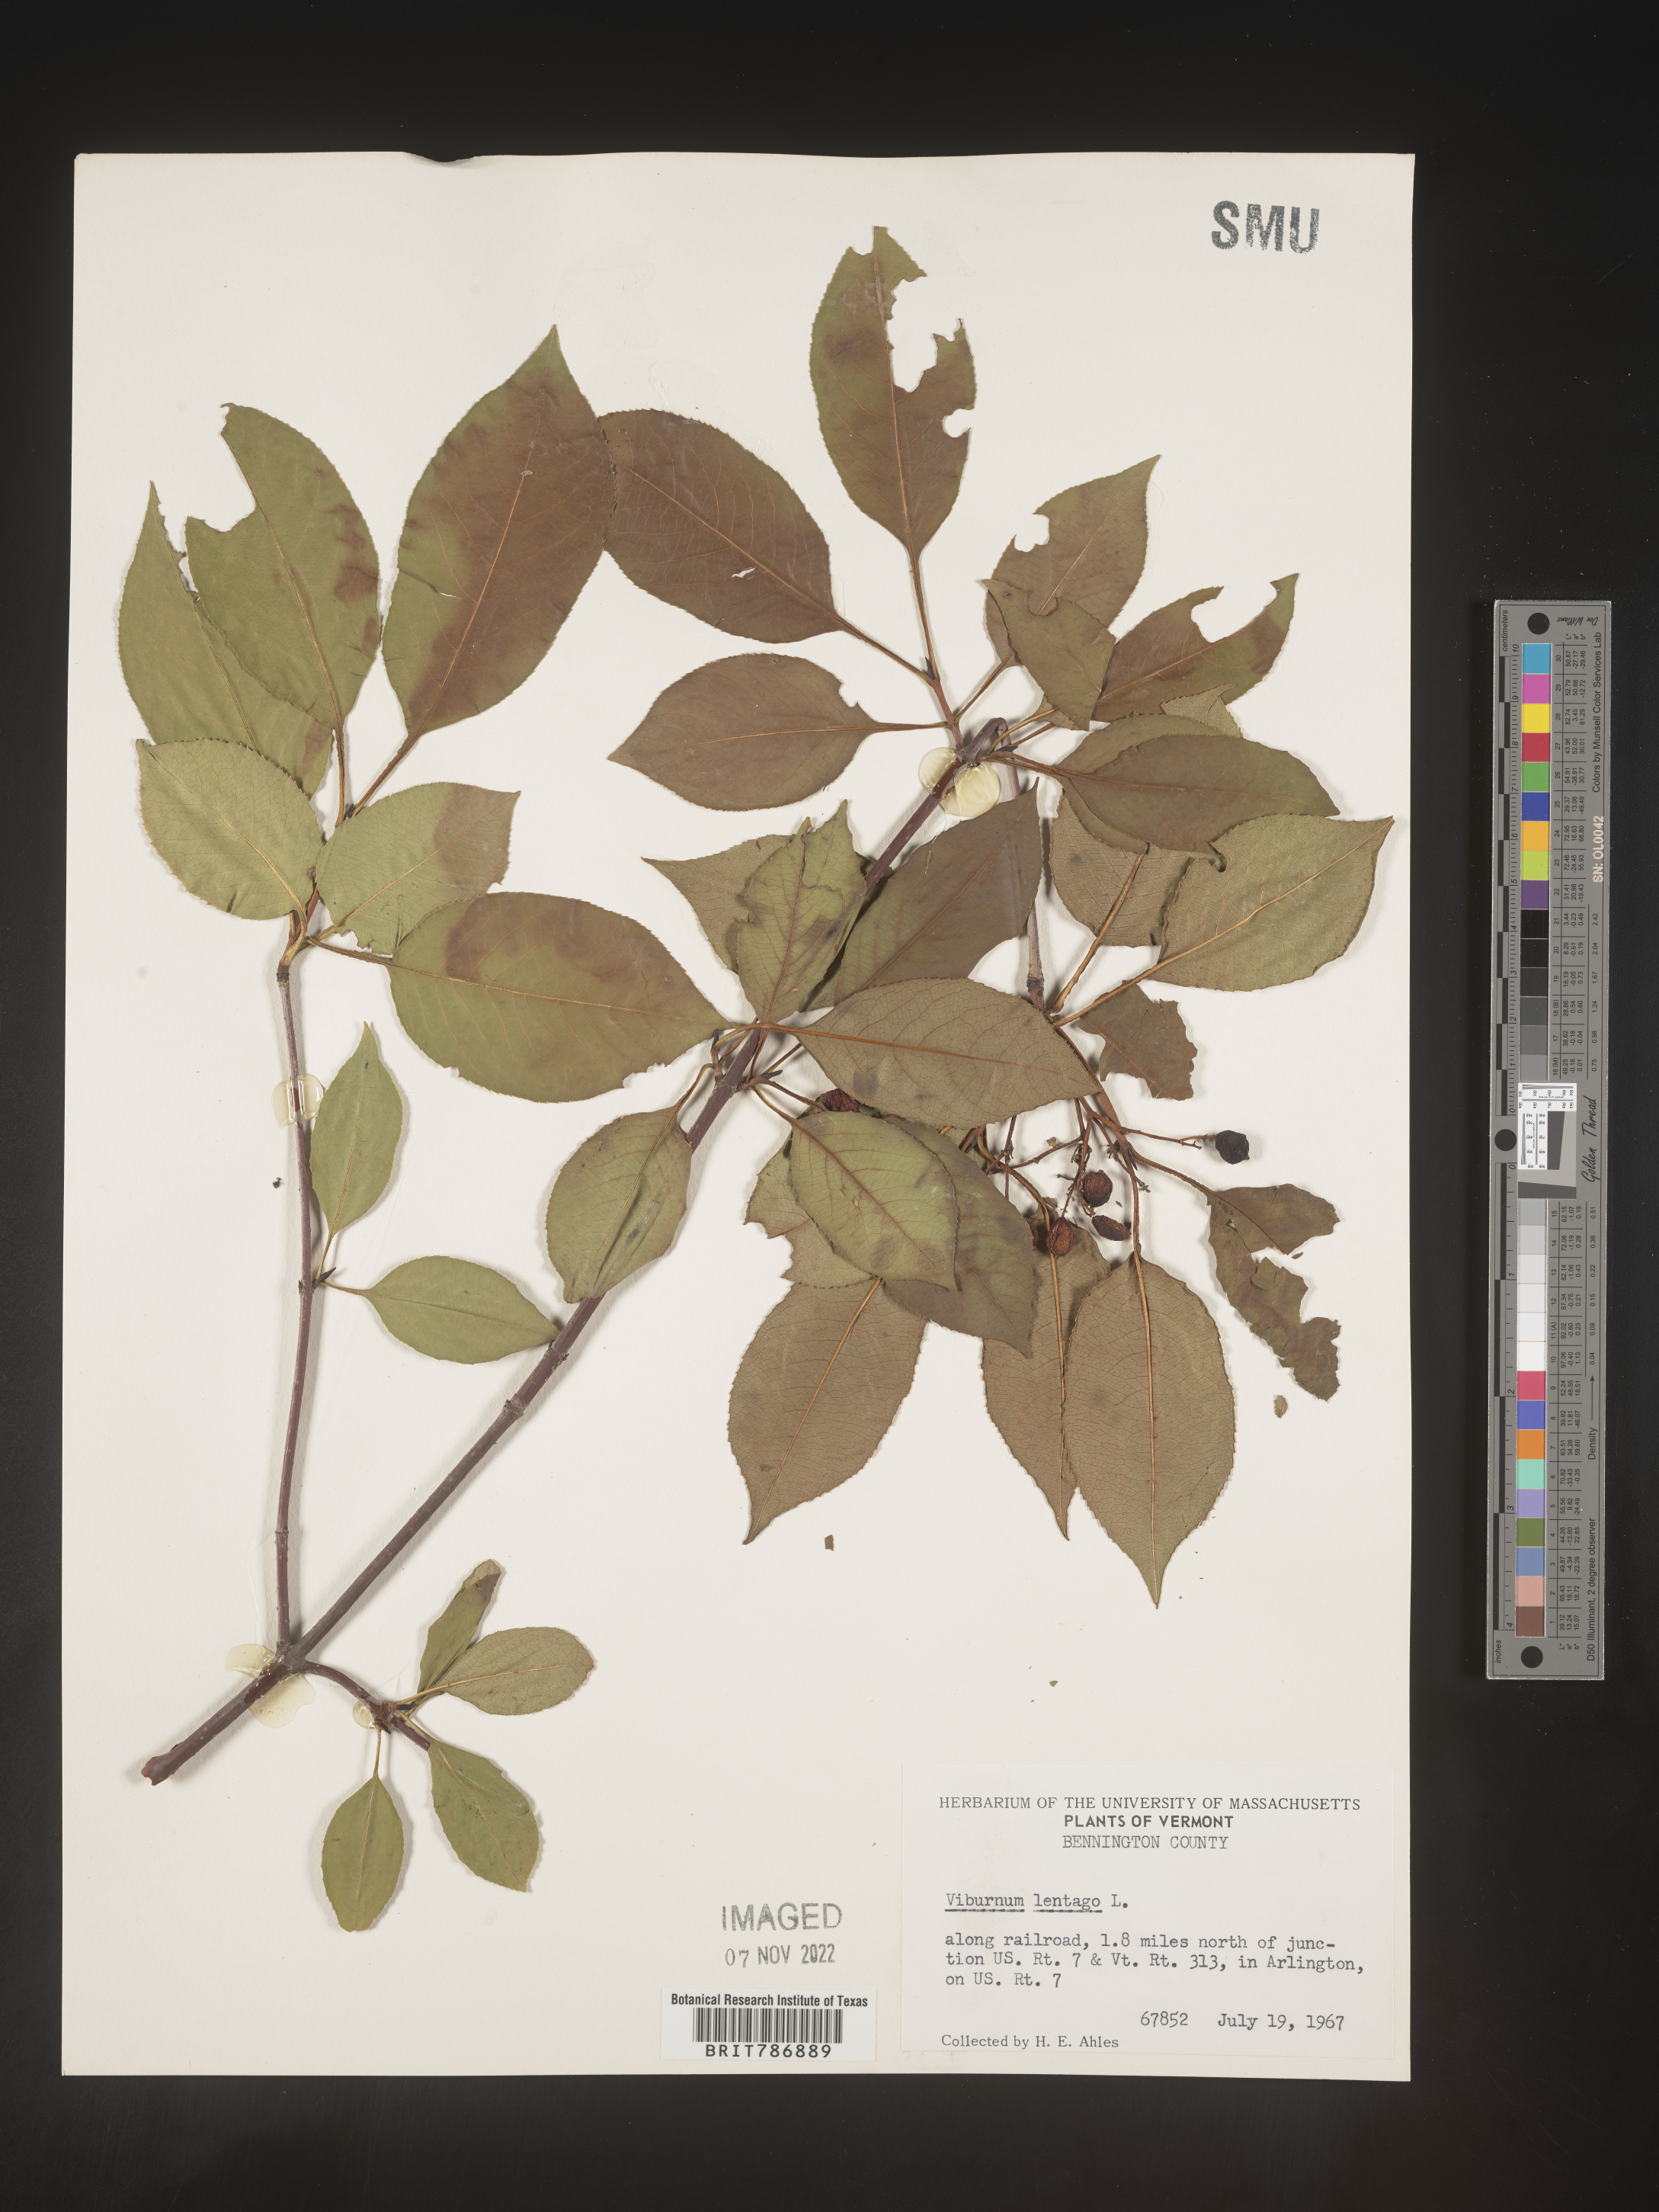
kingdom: Plantae
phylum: Tracheophyta
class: Magnoliopsida
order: Dipsacales
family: Viburnaceae
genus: Viburnum
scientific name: Viburnum lentago
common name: Black haw
